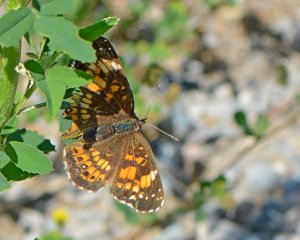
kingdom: Animalia
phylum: Arthropoda
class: Insecta
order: Lepidoptera
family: Nymphalidae
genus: Chlosyne
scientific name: Chlosyne nycteis
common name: Silvery Checkerspot
